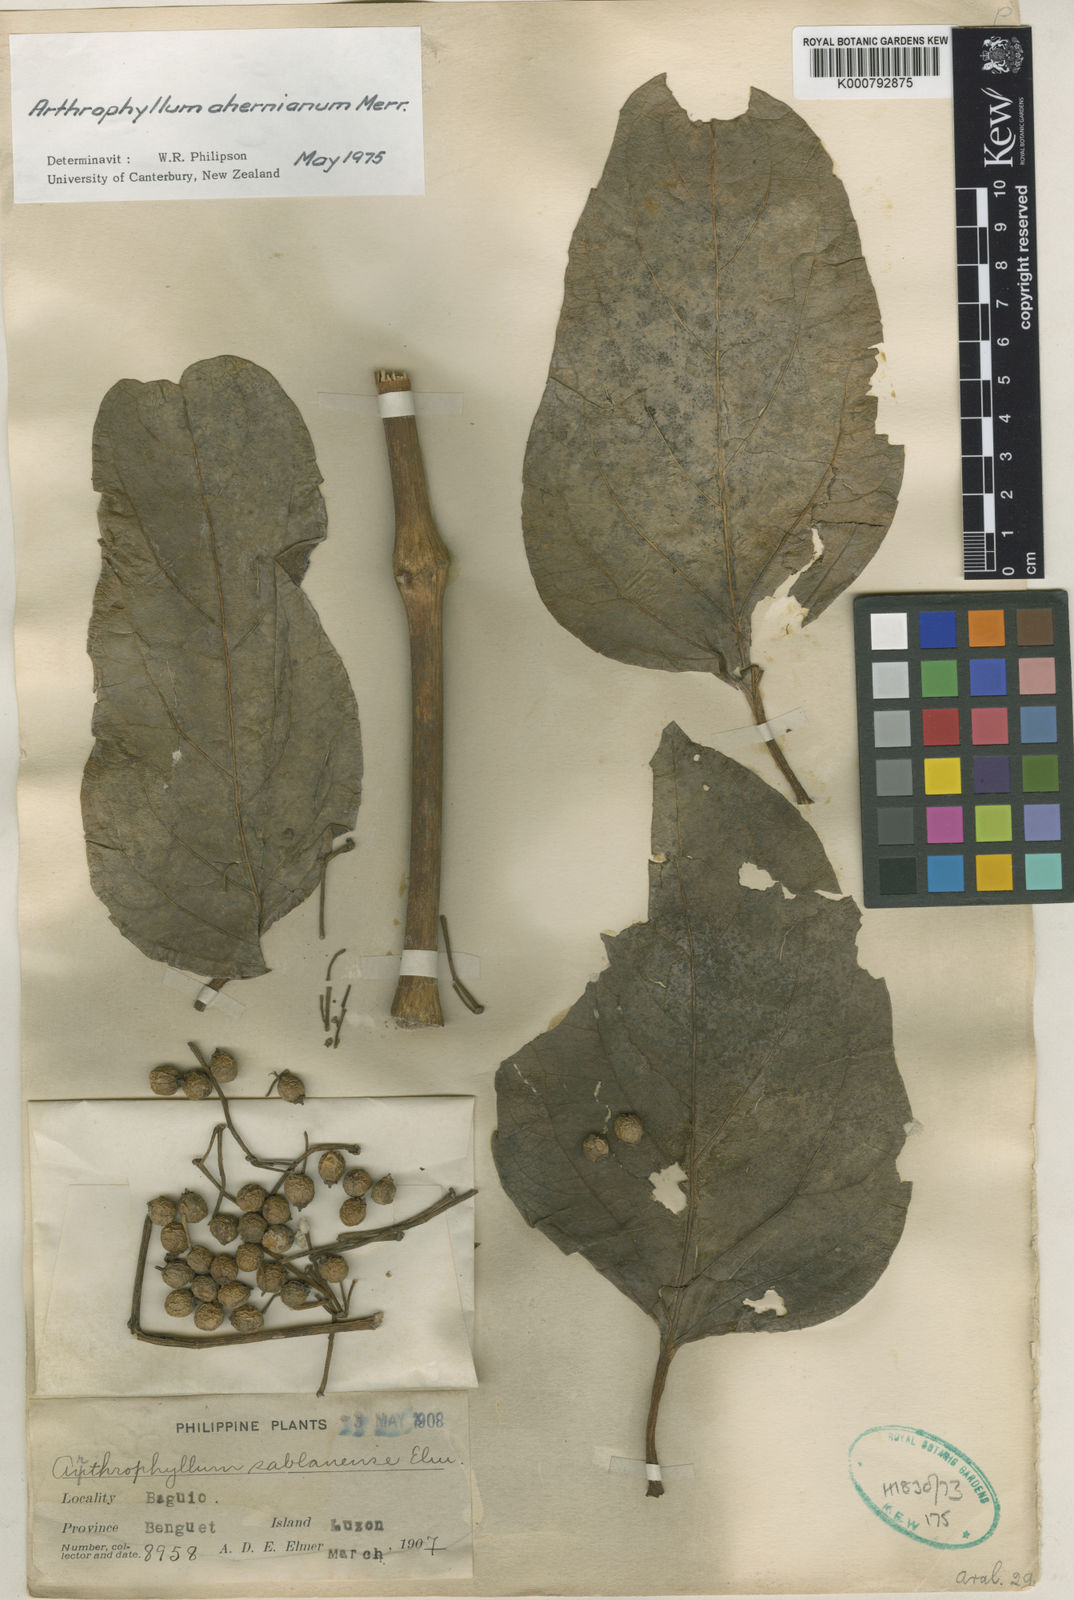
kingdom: Plantae
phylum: Tracheophyta
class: Magnoliopsida
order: Apiales
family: Araliaceae
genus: Polyscias
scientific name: Polyscias aherniana
